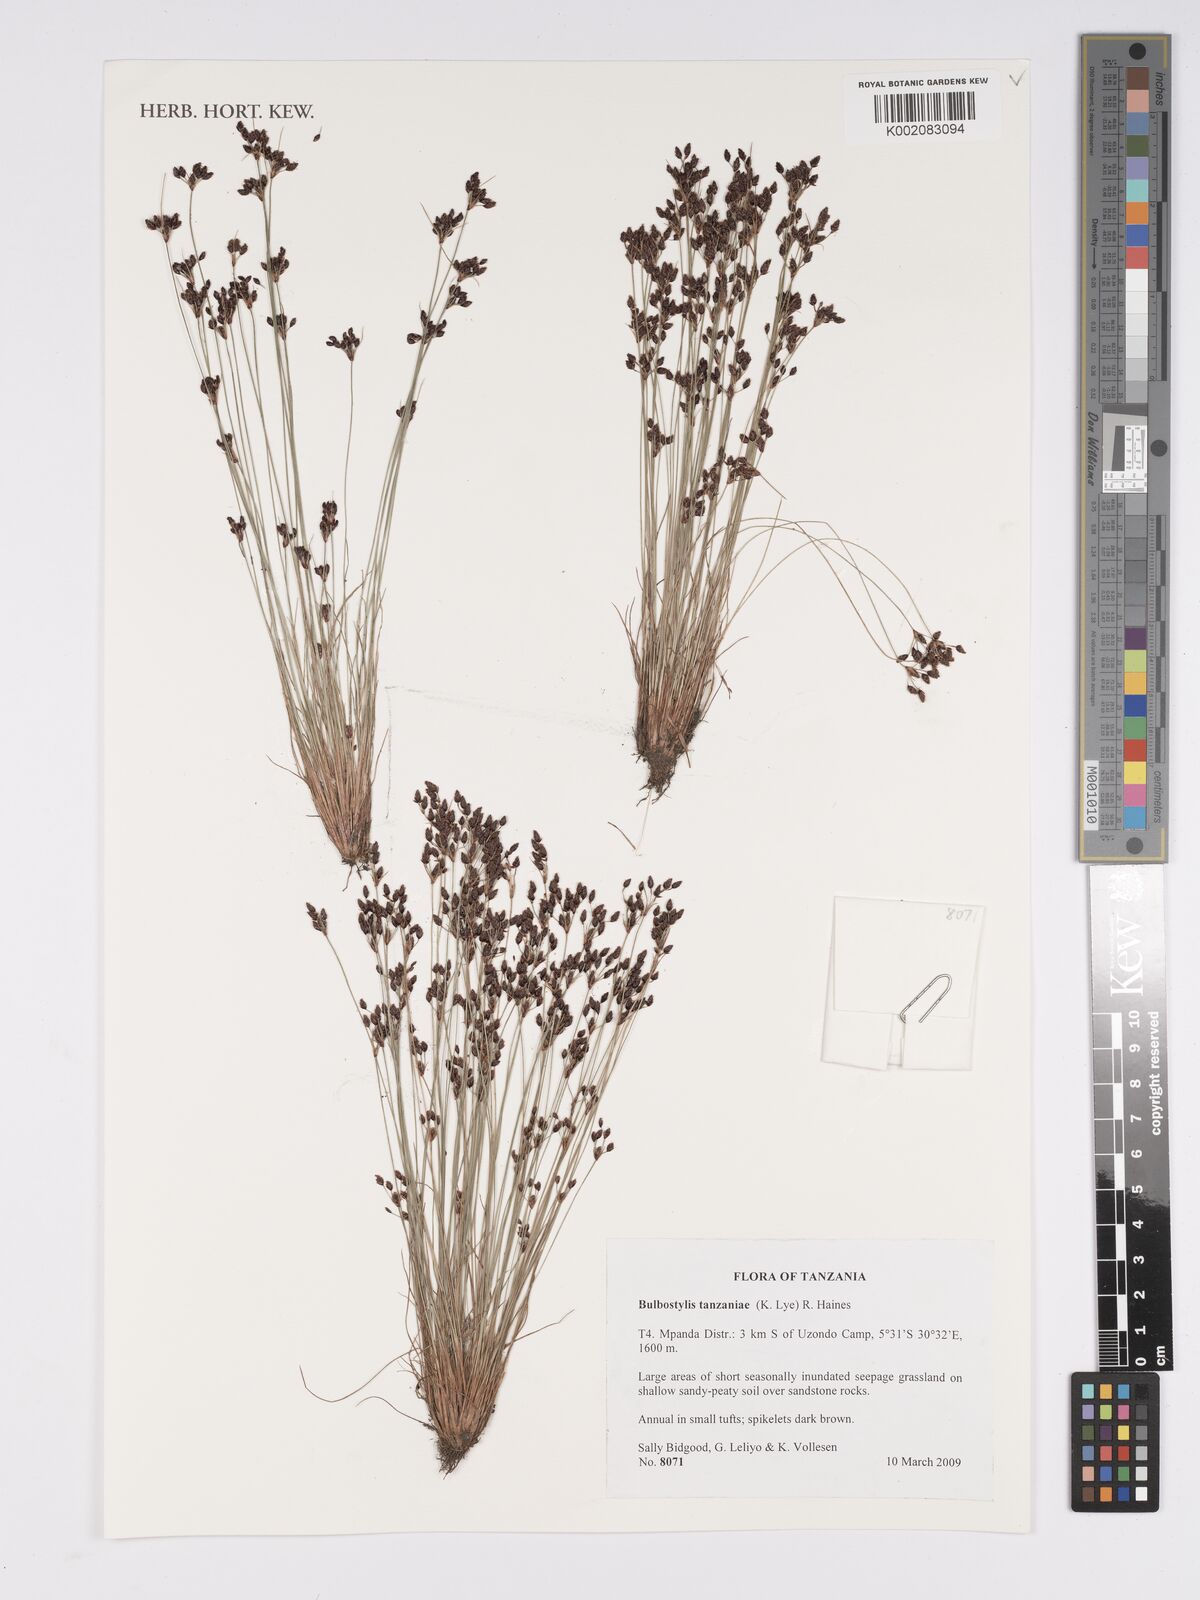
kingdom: Plantae
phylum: Tracheophyta
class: Liliopsida
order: Poales
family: Cyperaceae
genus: Bulbostylis
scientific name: Bulbostylis tanzaniae
